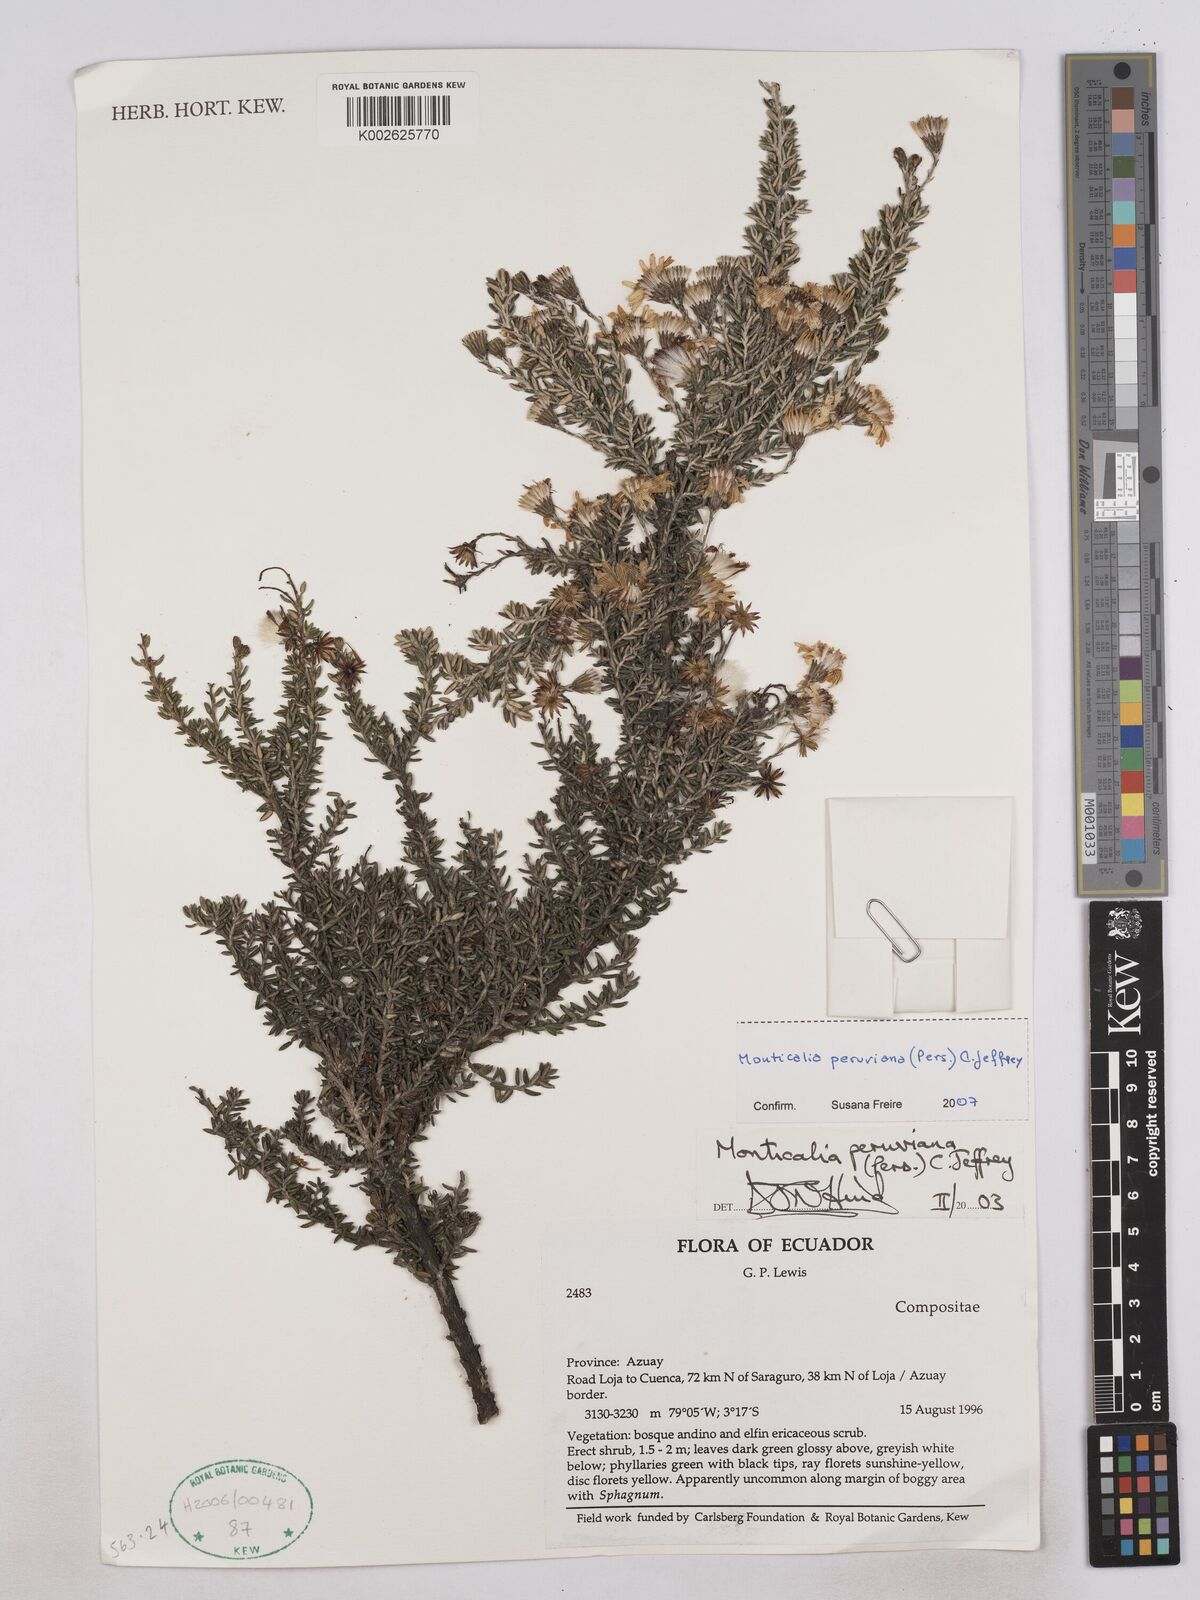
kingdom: Plantae
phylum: Tracheophyta
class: Magnoliopsida
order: Asterales
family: Asteraceae
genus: Monticalia
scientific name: Monticalia peruviana
